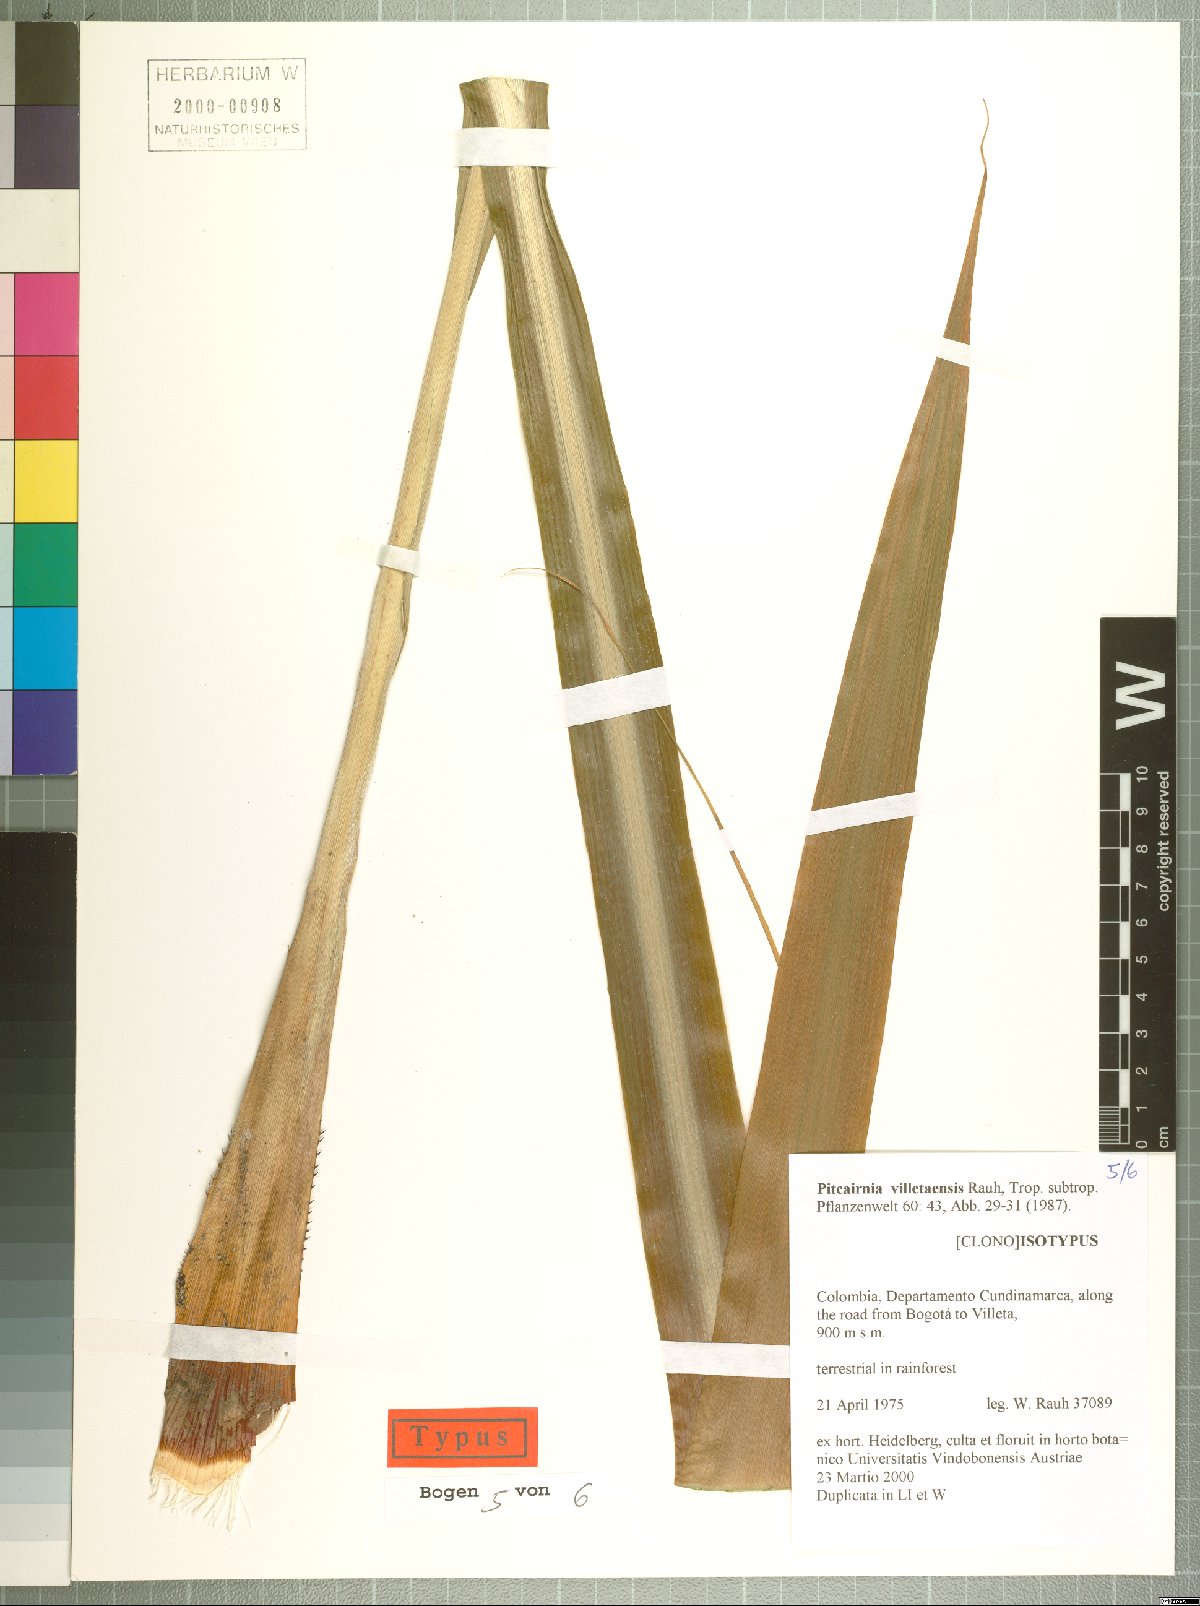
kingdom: Plantae
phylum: Tracheophyta
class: Liliopsida
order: Poales
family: Bromeliaceae
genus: Pitcairnia
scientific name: Pitcairnia villetaensis
